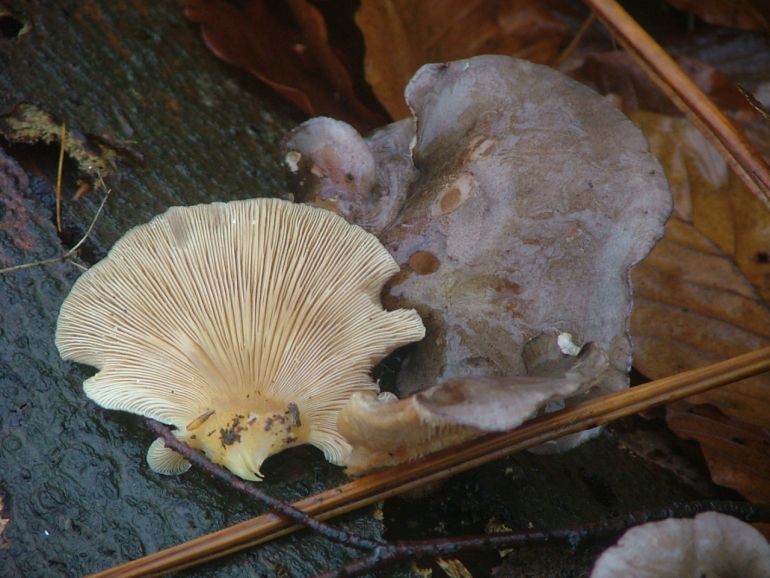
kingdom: Fungi
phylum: Basidiomycota
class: Agaricomycetes
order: Agaricales
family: Sarcomyxaceae
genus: Sarcomyxa
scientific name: Sarcomyxa serotina
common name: gummihat
